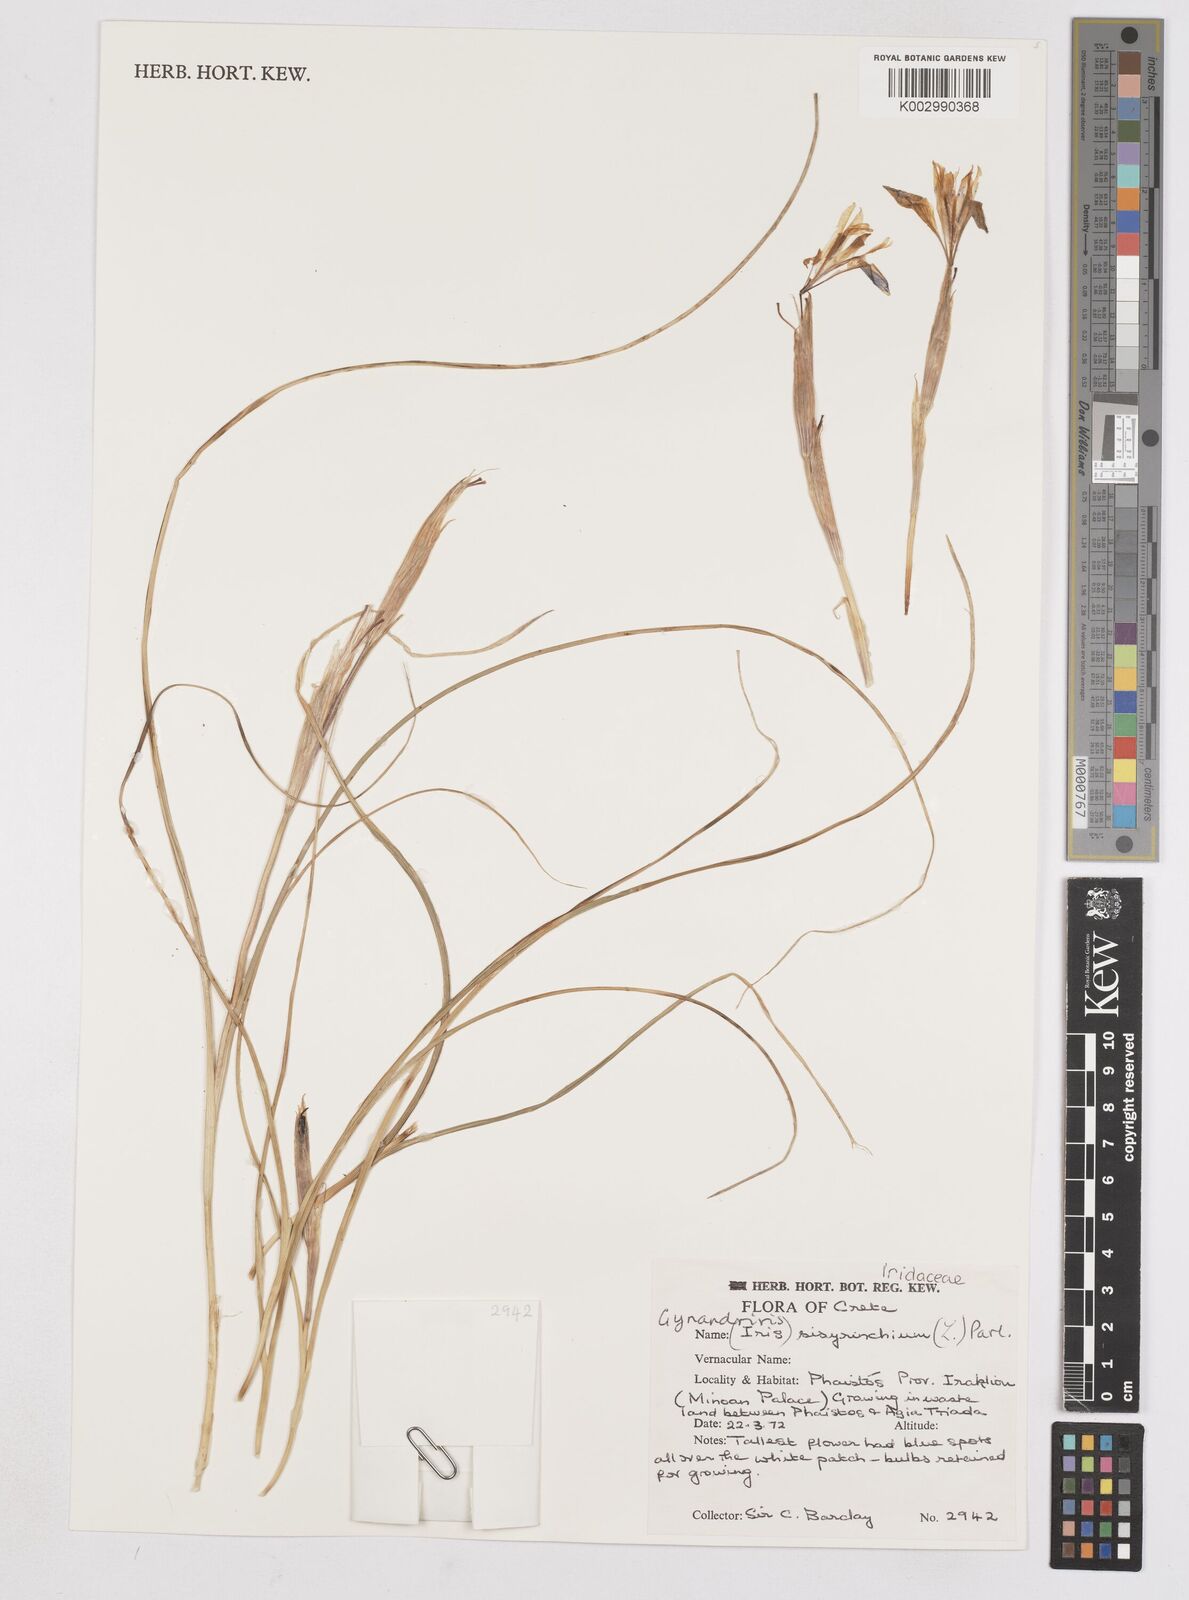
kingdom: Plantae
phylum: Tracheophyta
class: Liliopsida
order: Asparagales
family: Iridaceae
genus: Moraea
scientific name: Moraea sisyrinchium
